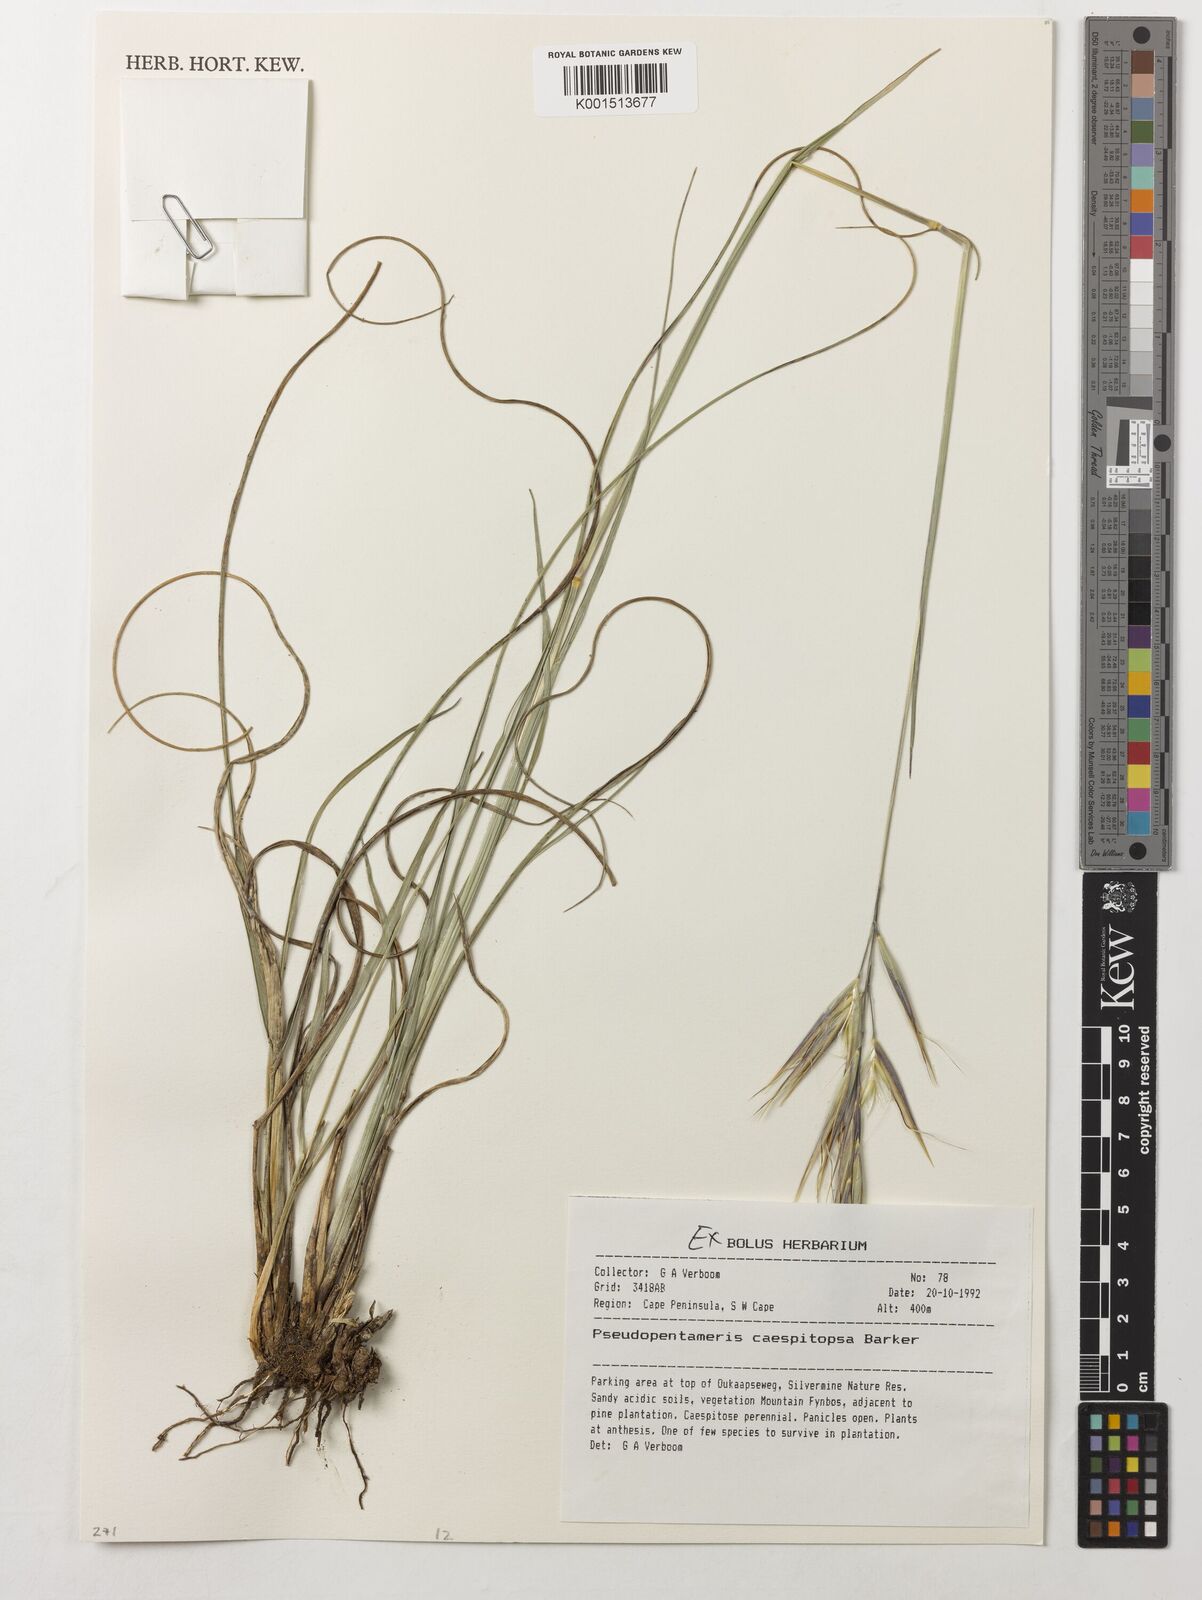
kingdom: Plantae
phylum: Tracheophyta
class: Liliopsida
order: Poales
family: Poaceae
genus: Pseudopentameris
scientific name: Pseudopentameris caespitosa
